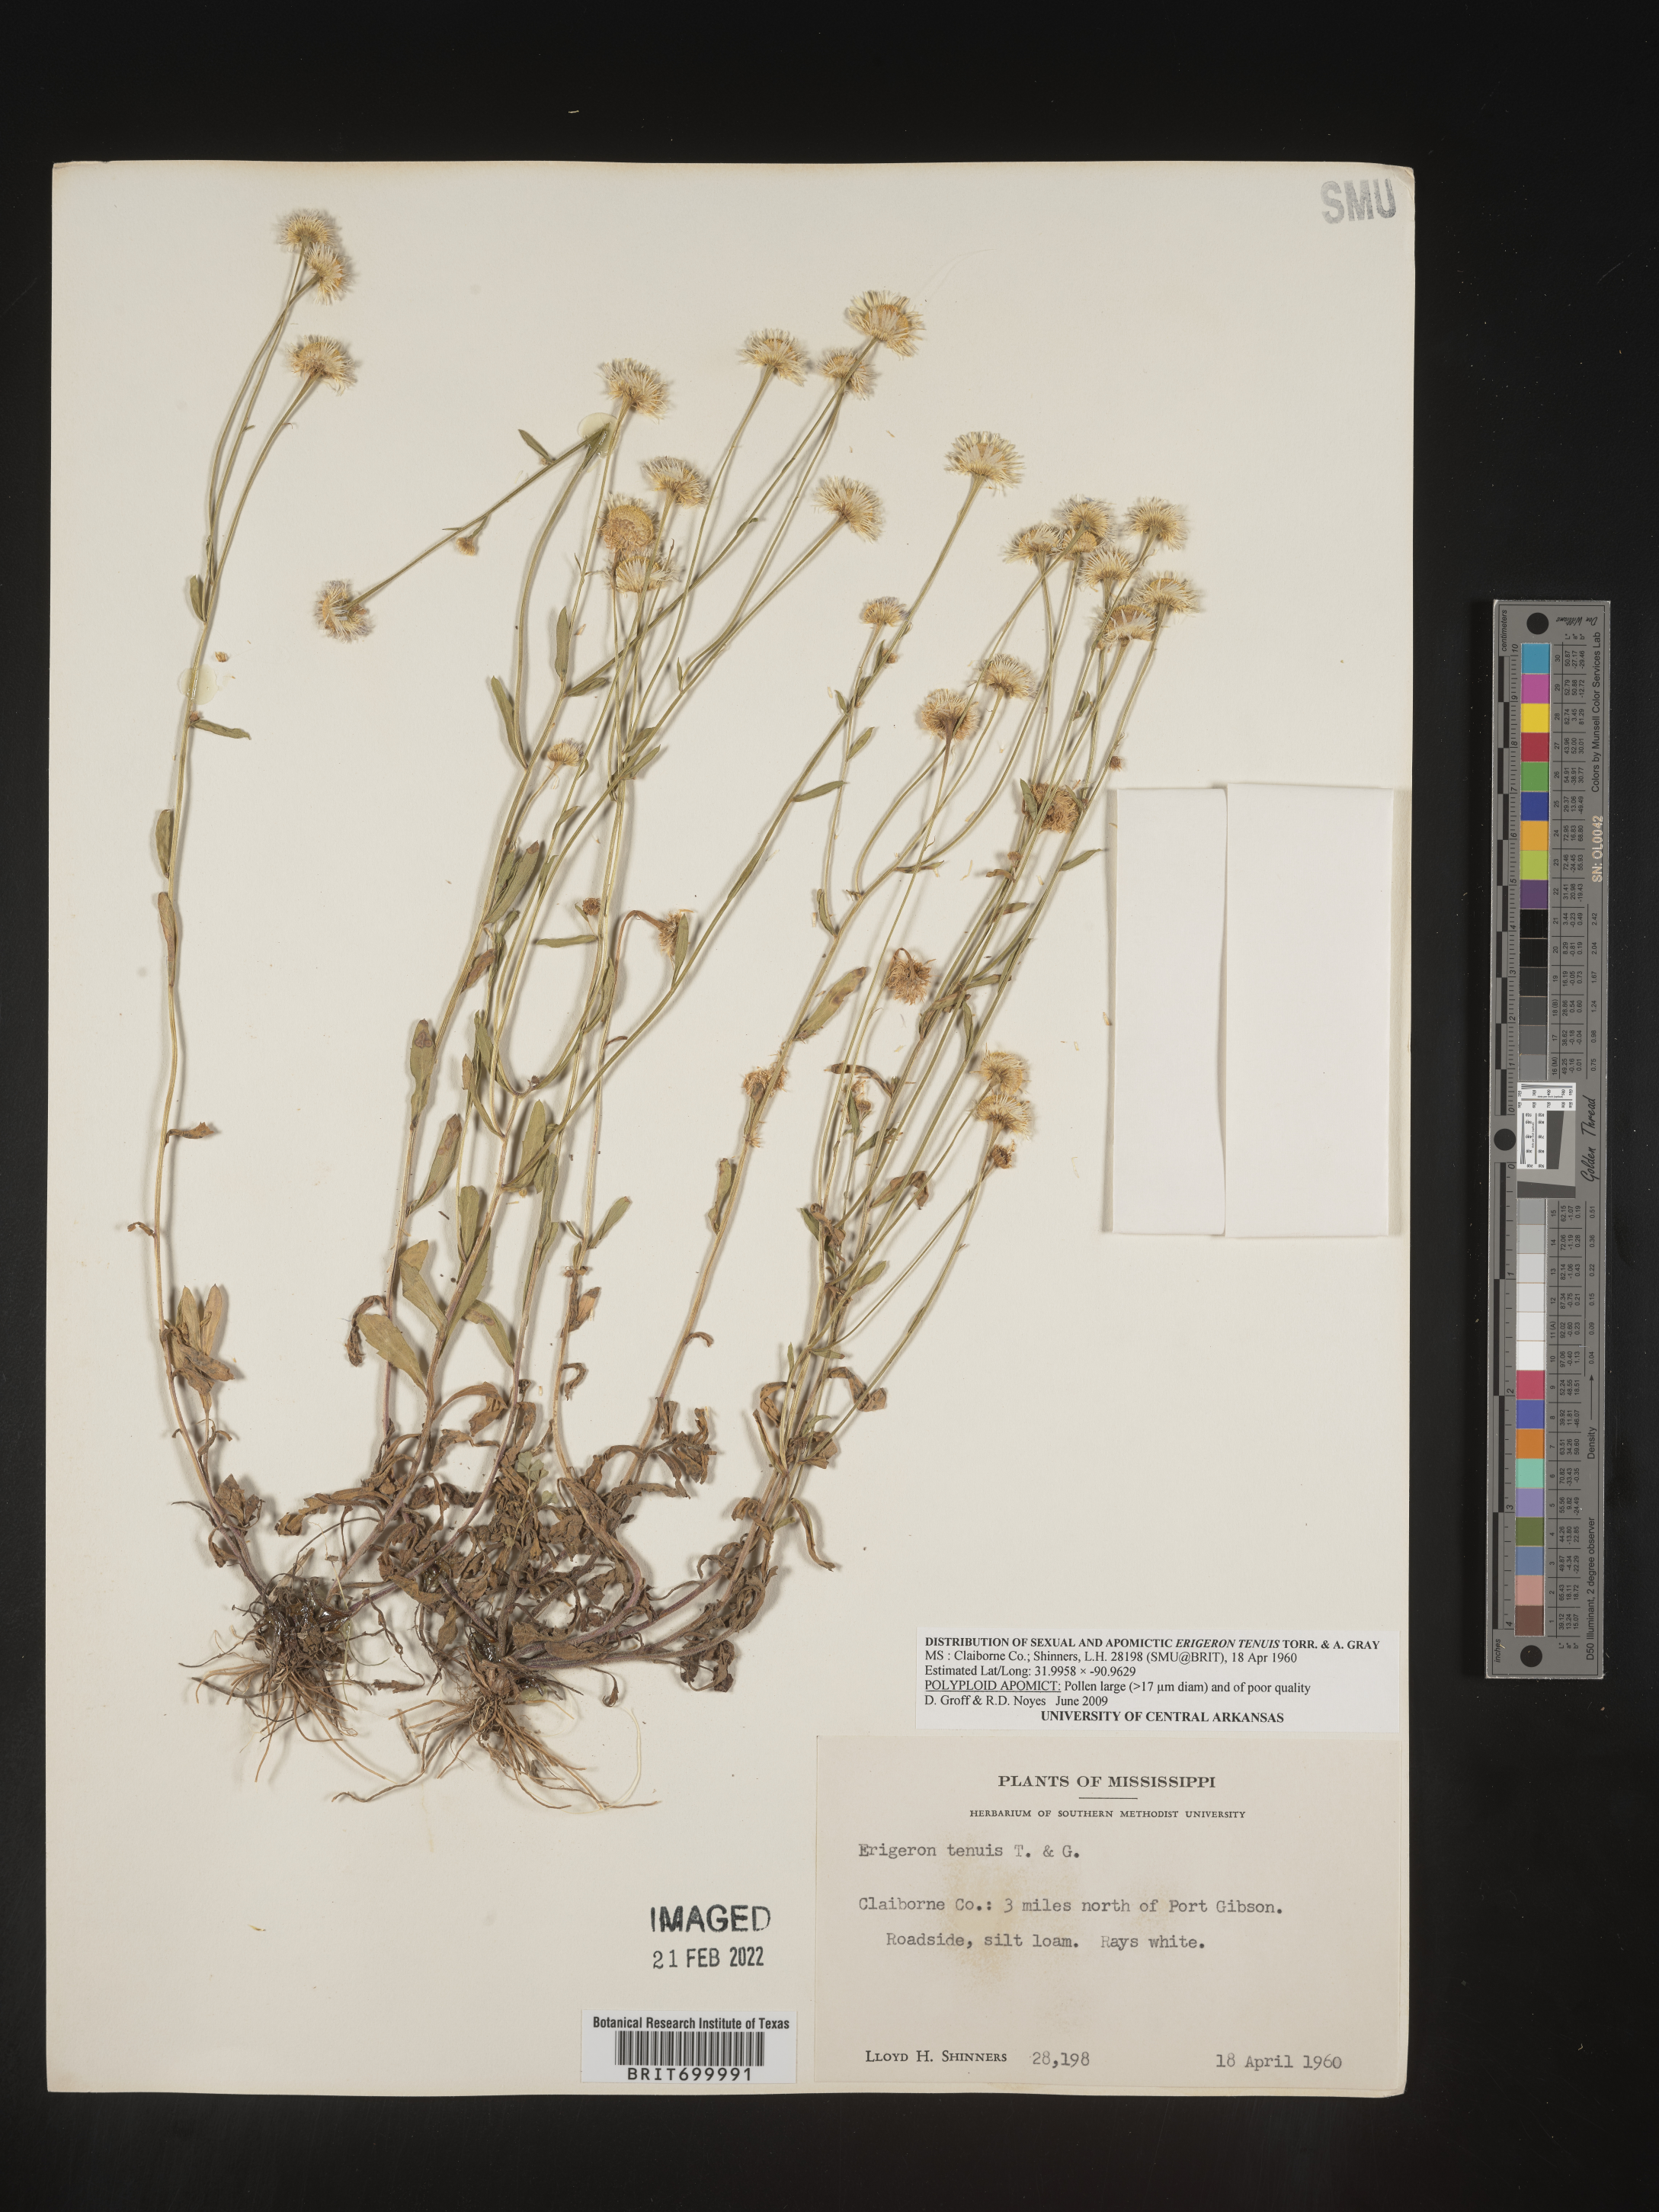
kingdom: Plantae
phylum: Tracheophyta
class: Magnoliopsida
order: Asterales
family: Asteraceae
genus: Erigeron
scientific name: Erigeron tenuis
